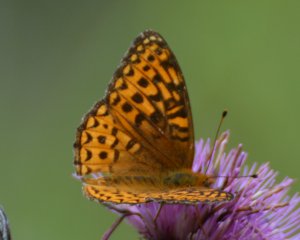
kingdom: Animalia
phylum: Arthropoda
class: Insecta
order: Lepidoptera
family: Nymphalidae
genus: Speyeria
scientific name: Speyeria atlantis
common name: Atlantis Fritillary
